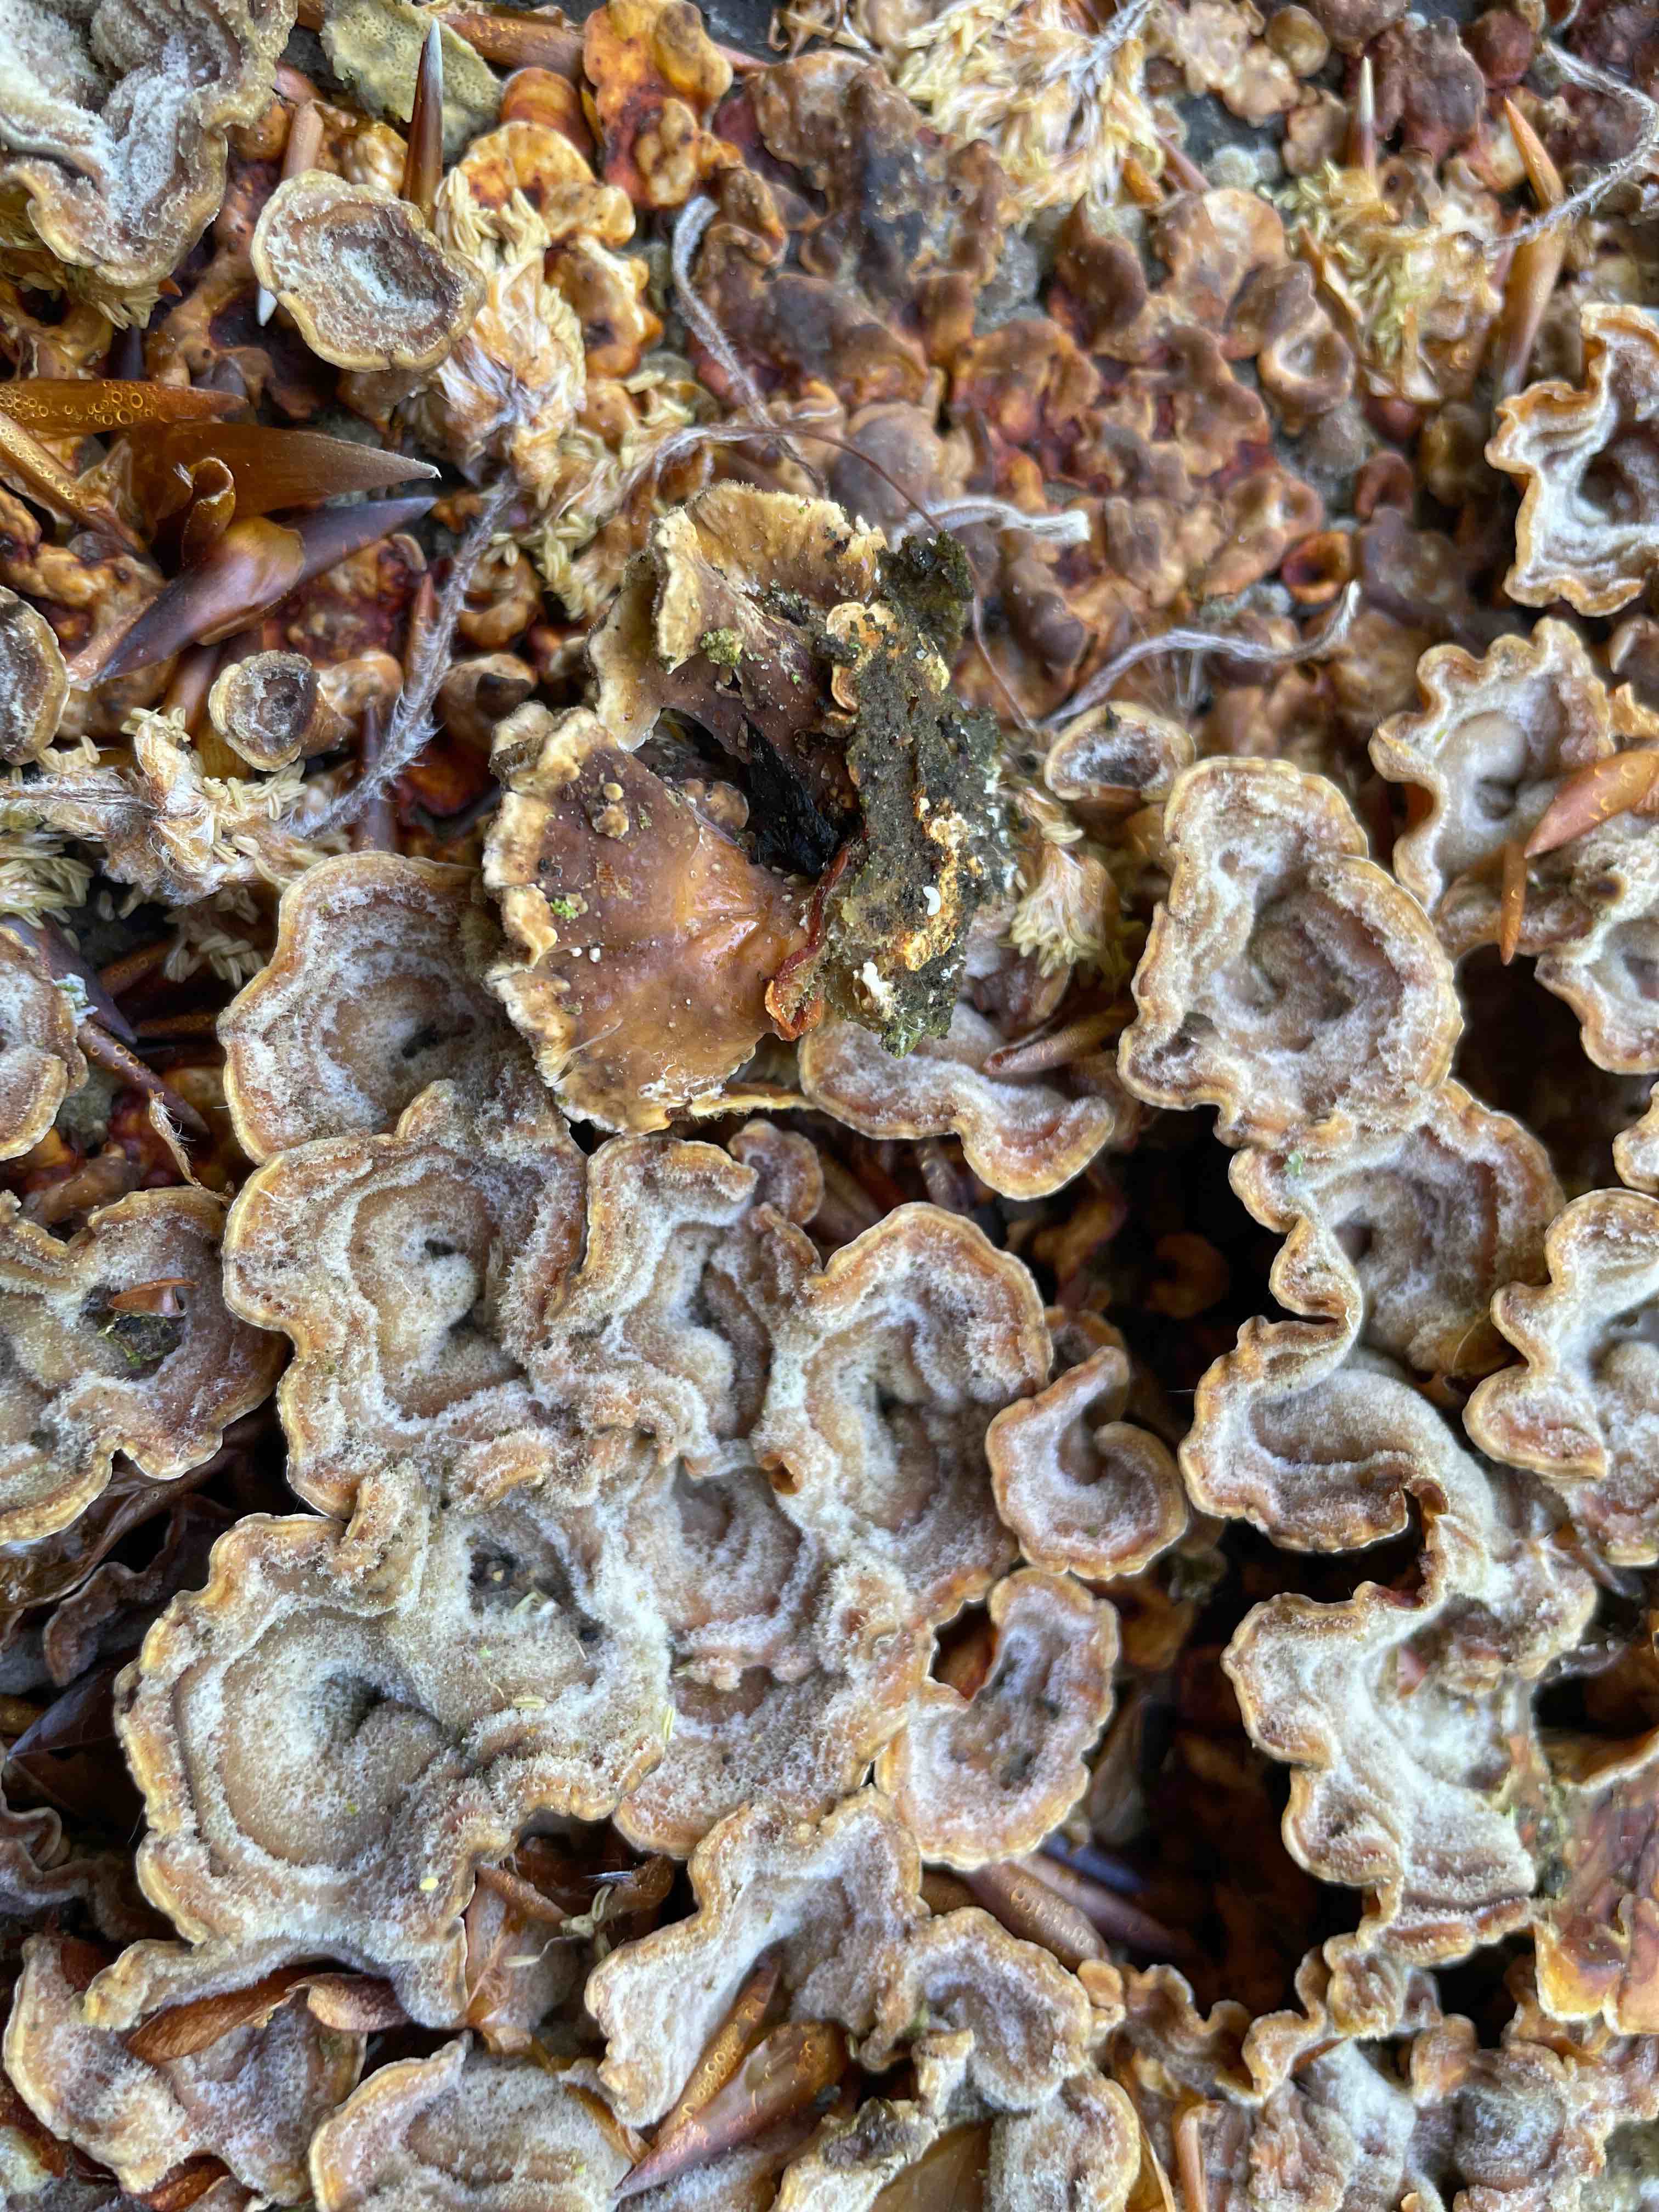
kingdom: Fungi
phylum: Basidiomycota
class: Agaricomycetes
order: Russulales
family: Stereaceae
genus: Stereum
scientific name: Stereum hirsutum
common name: håret lædersvamp
